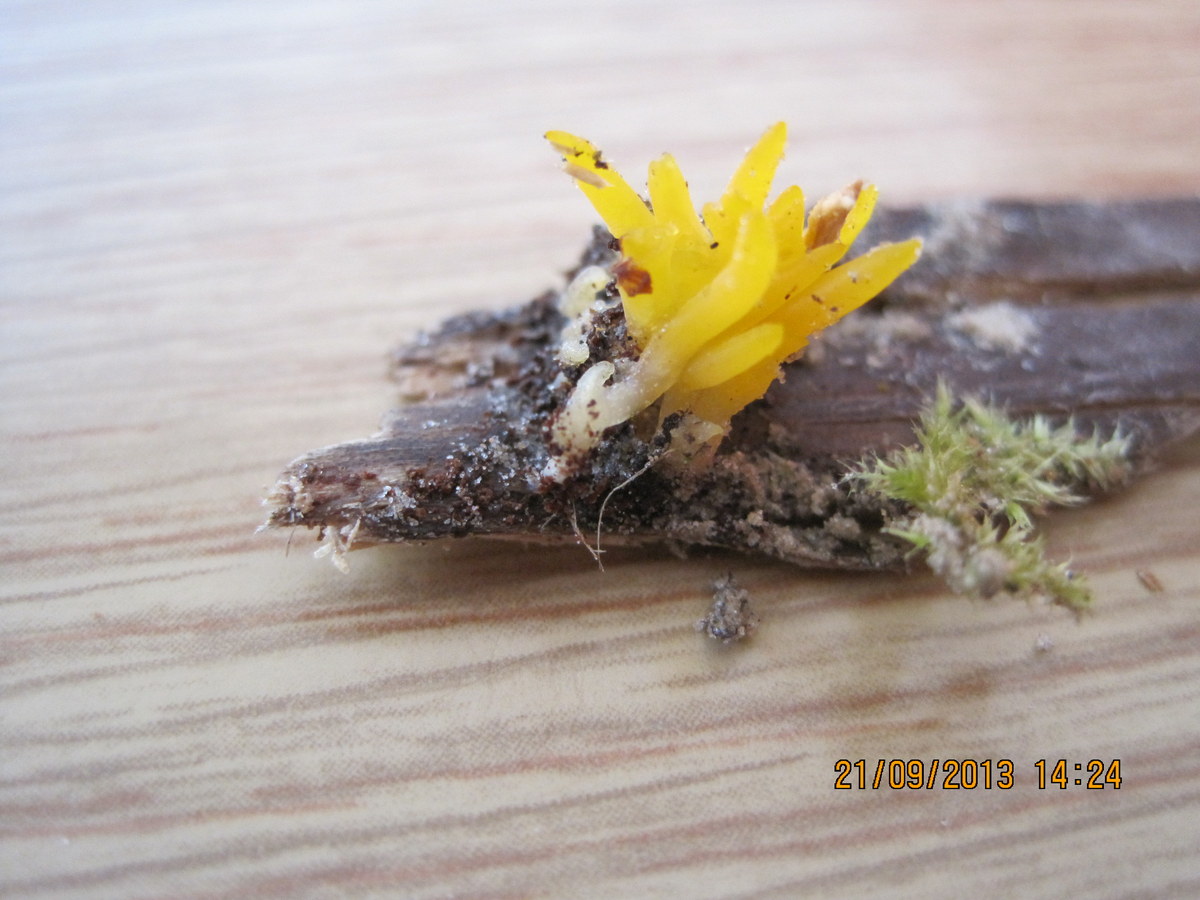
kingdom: Fungi
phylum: Basidiomycota
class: Dacrymycetes
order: Dacrymycetales
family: Dacrymycetaceae
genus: Calocera
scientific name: Calocera furcata
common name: fyrre-guldgaffel
